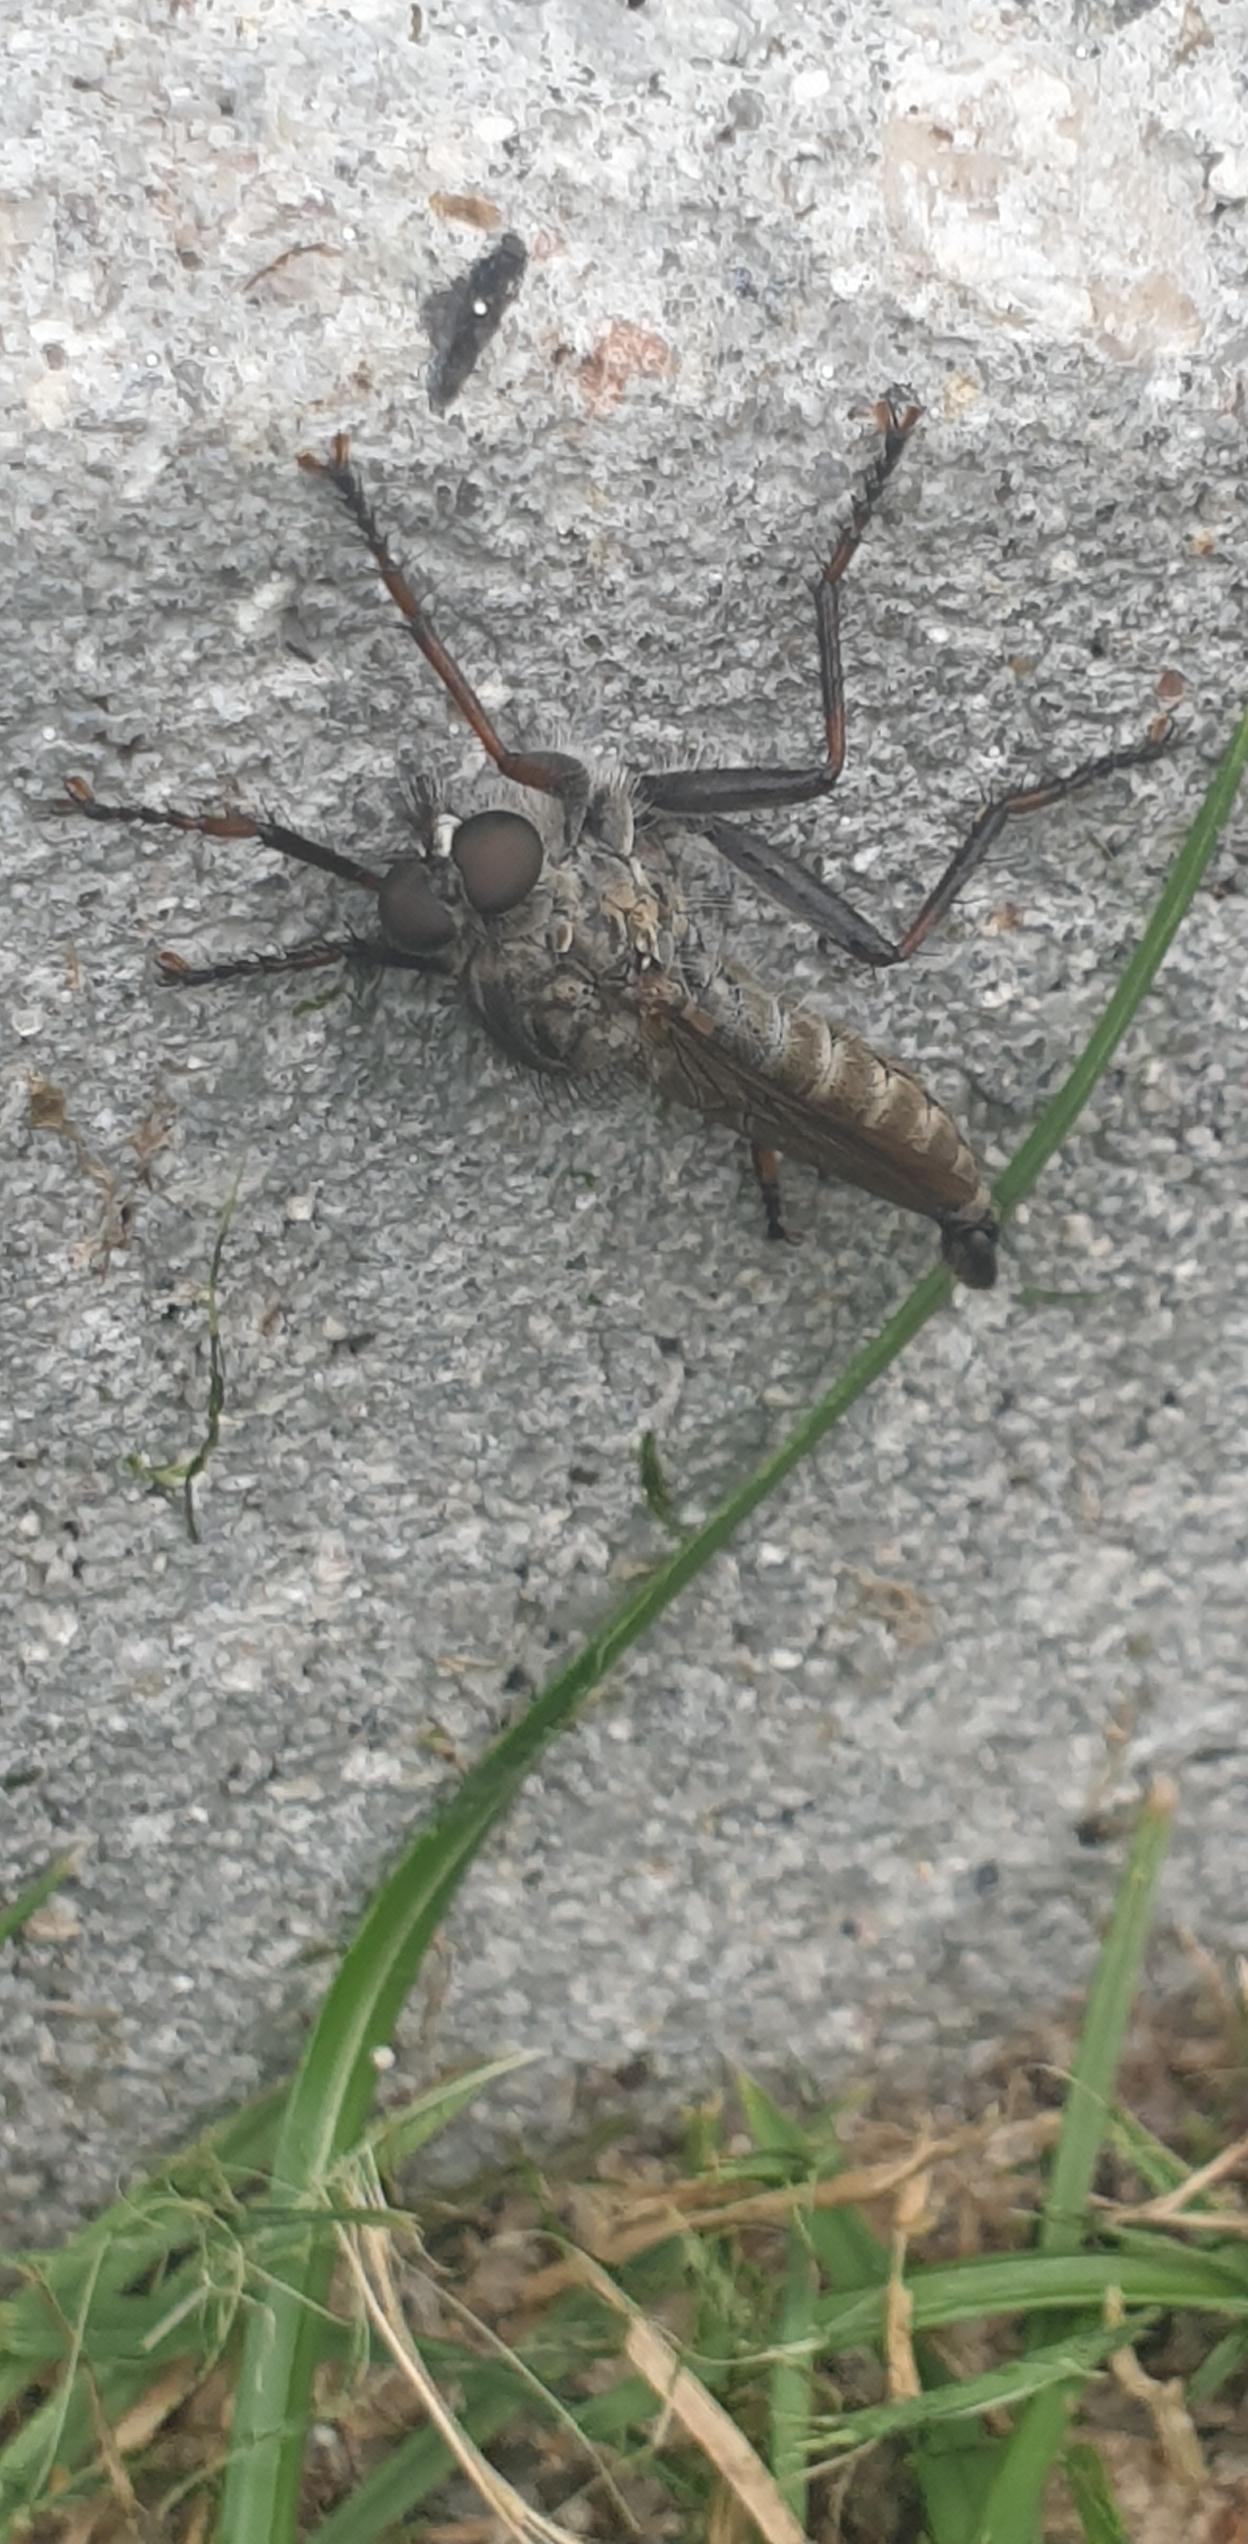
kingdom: Animalia
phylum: Arthropoda
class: Insecta
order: Diptera
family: Asilidae
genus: Machimus
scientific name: Machimus atricapillus
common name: Sort hårrovflue
